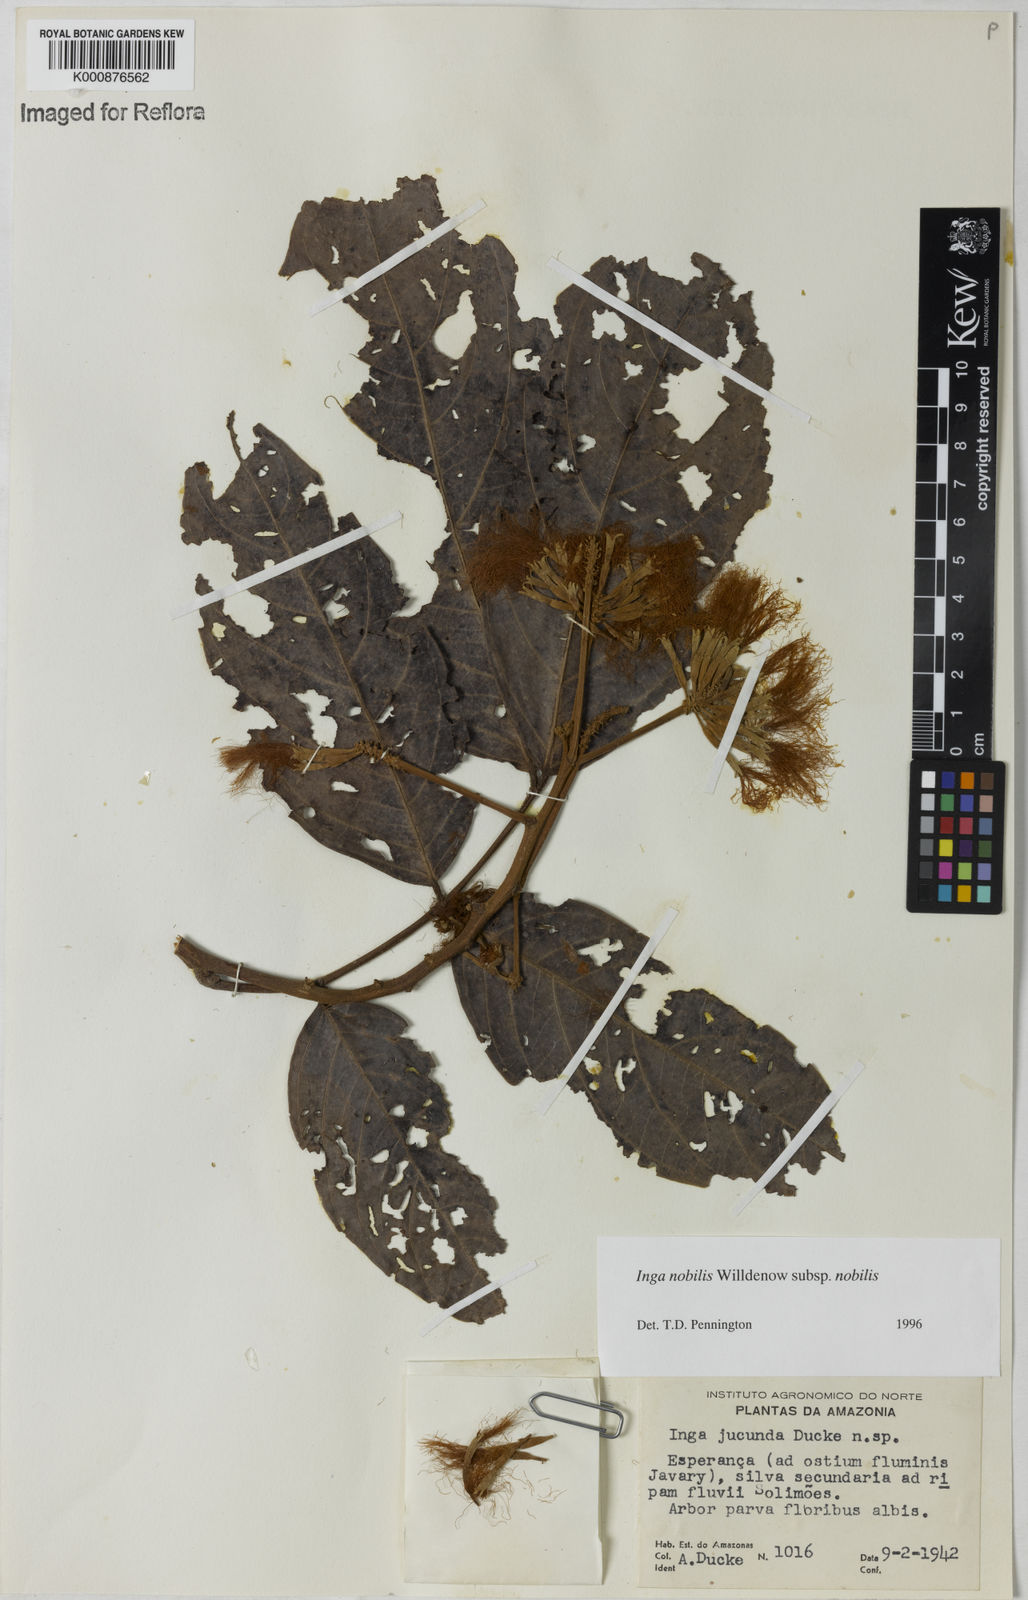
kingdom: Plantae
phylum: Tracheophyta
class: Magnoliopsida
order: Fabales
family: Fabaceae
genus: Inga
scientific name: Inga nobilis
